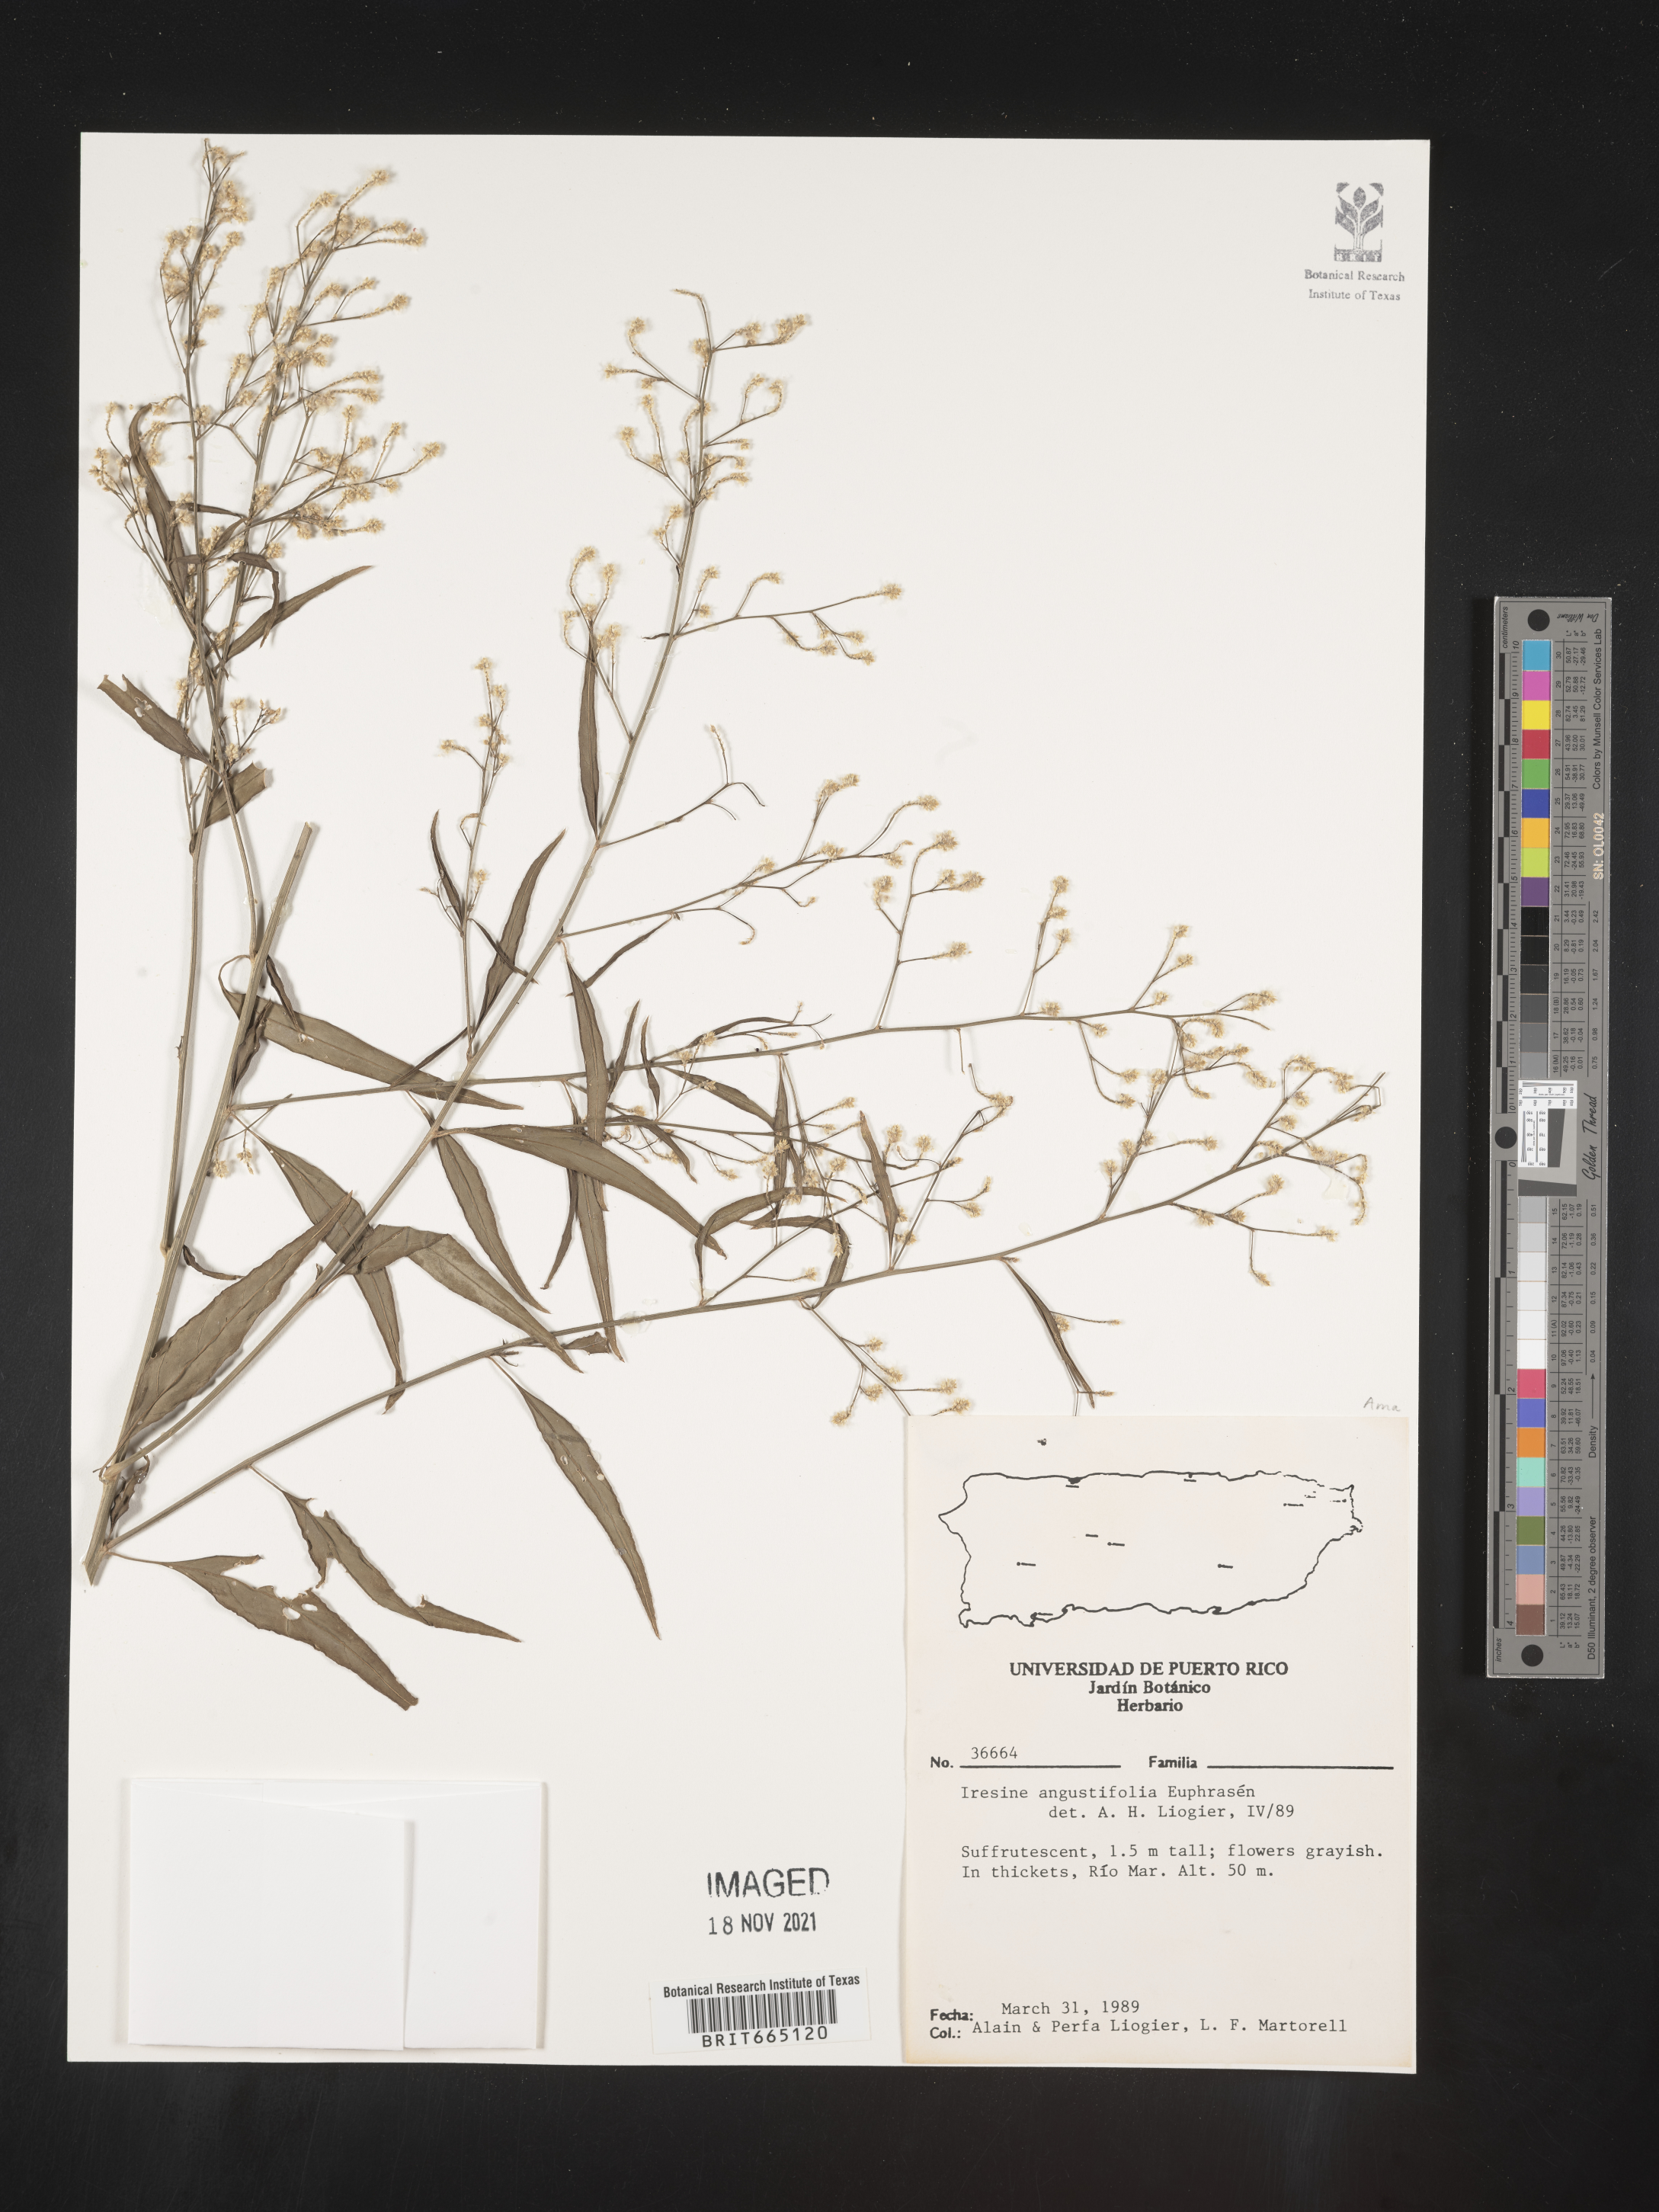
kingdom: Plantae
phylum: Tracheophyta
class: Magnoliopsida
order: Caryophyllales
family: Amaranthaceae
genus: Iresine
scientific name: Iresine
